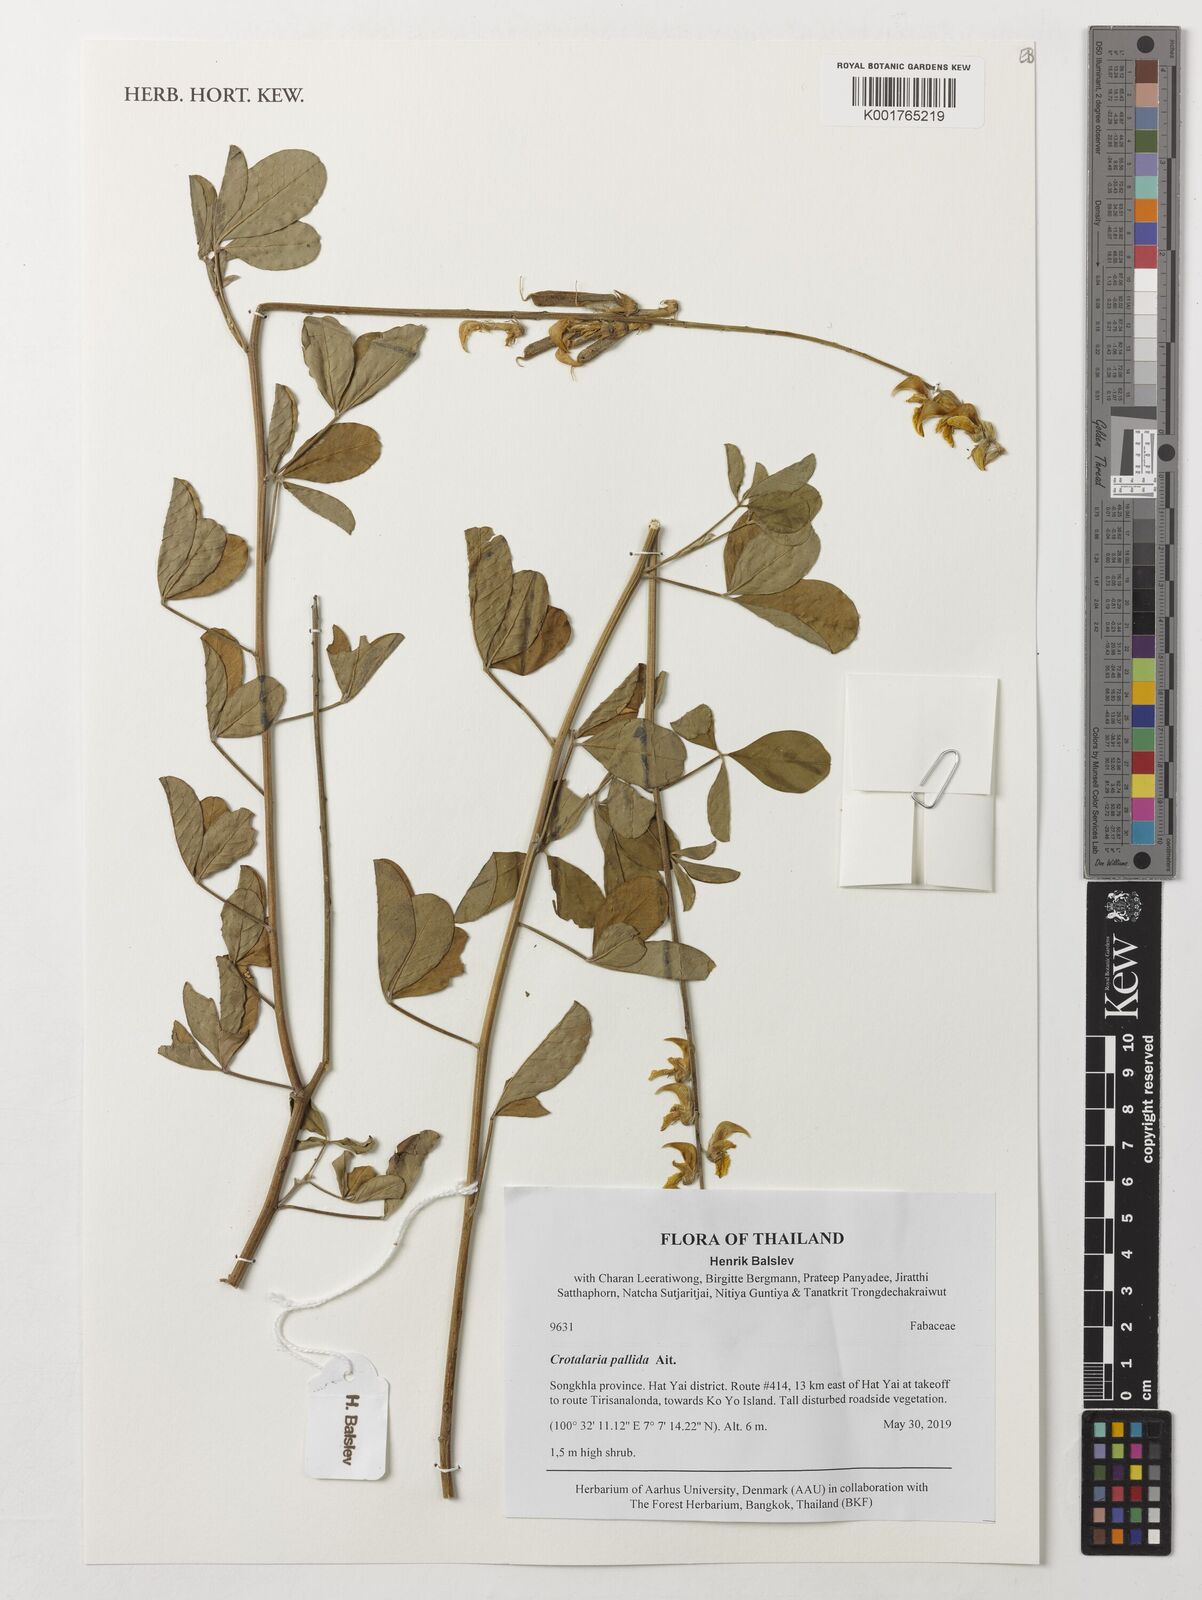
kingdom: Plantae
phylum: Tracheophyta
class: Magnoliopsida
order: Fabales
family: Fabaceae
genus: Crotalaria
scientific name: Crotalaria pallida
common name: Smooth rattlebox
